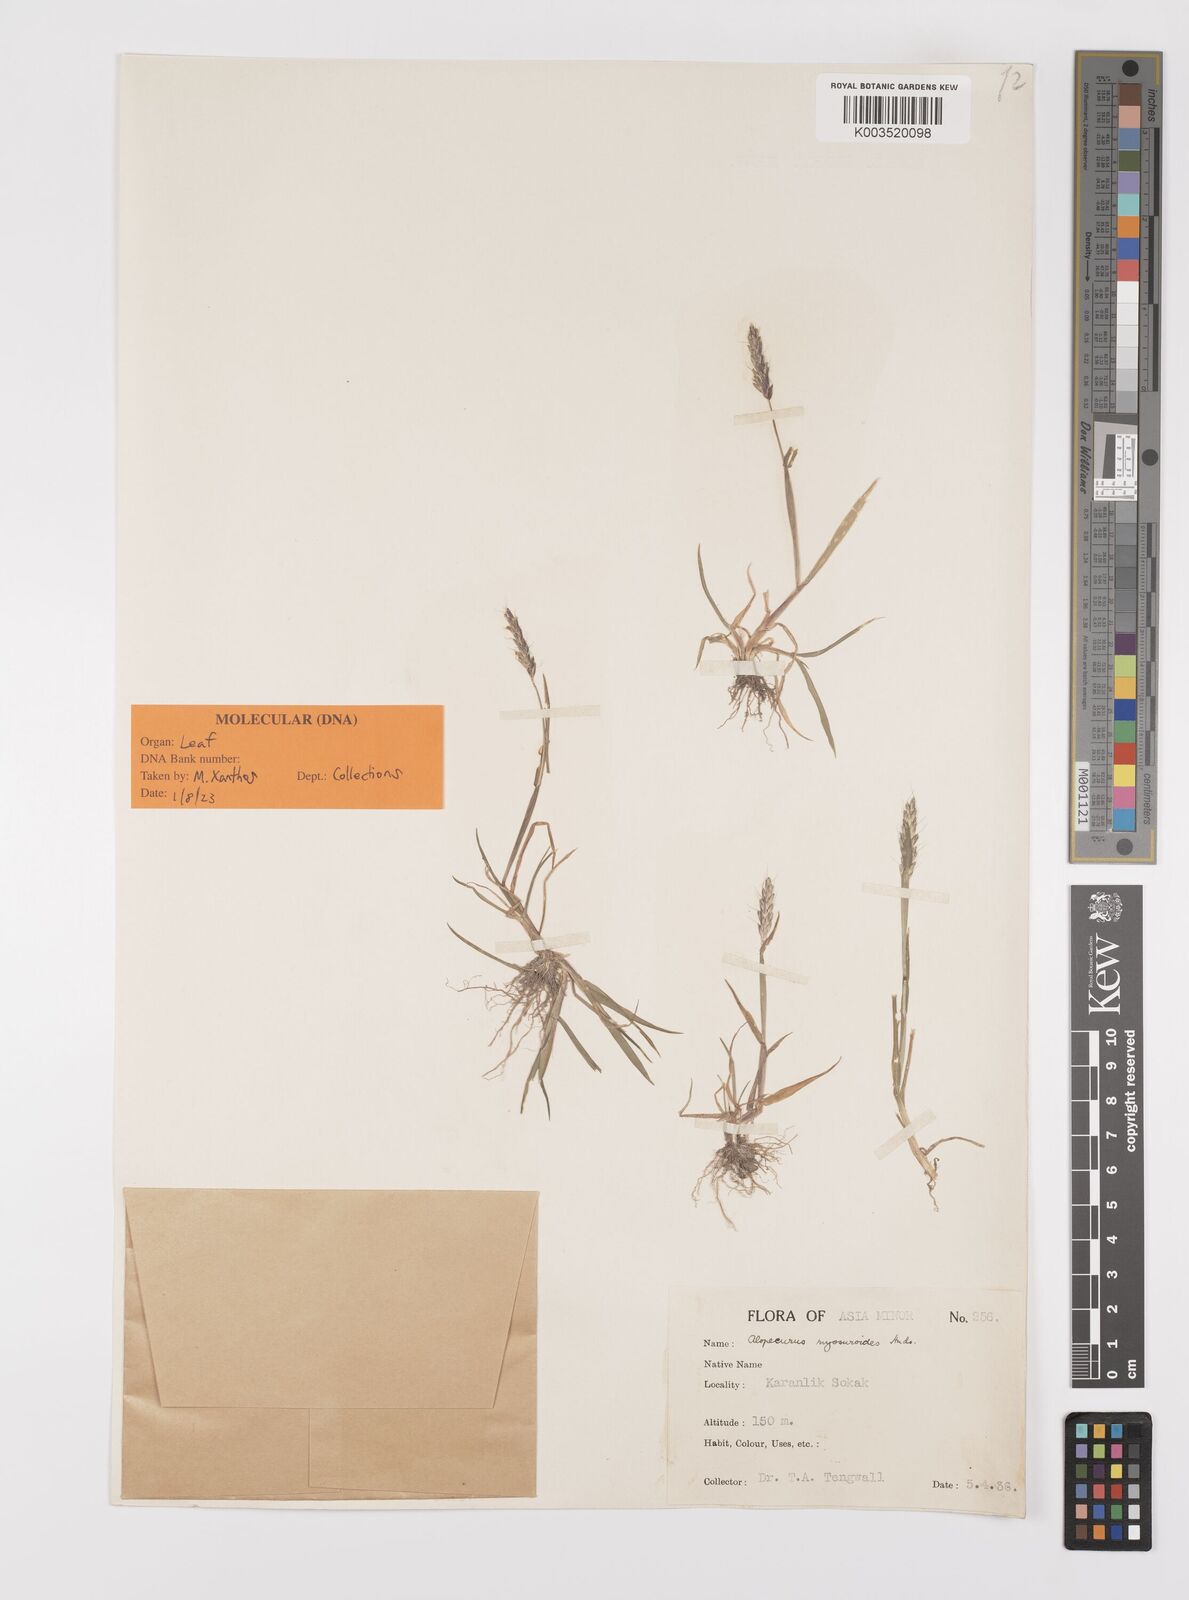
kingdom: Plantae
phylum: Tracheophyta
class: Liliopsida
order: Poales
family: Poaceae
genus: Alopecurus
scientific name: Alopecurus myosuroides
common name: Black-grass
